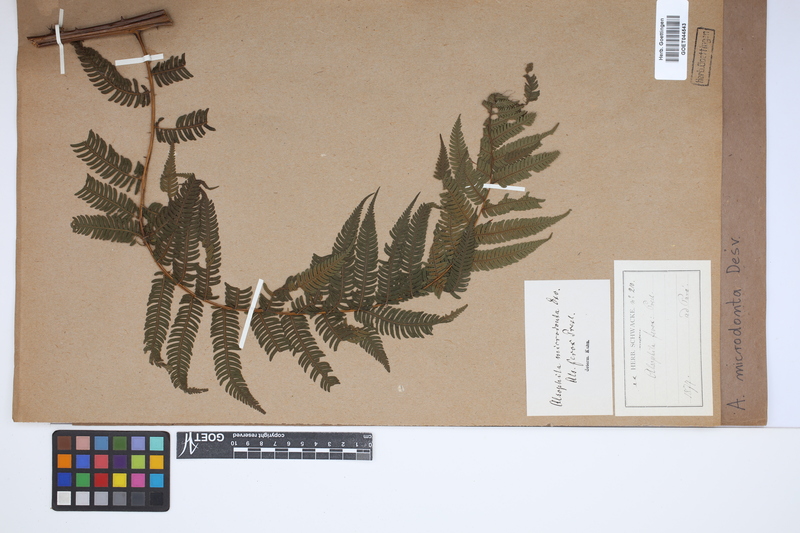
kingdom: Plantae
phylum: Tracheophyta
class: Polypodiopsida
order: Cyatheales
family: Cyatheaceae
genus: Cyathea
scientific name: Cyathea microdonta
